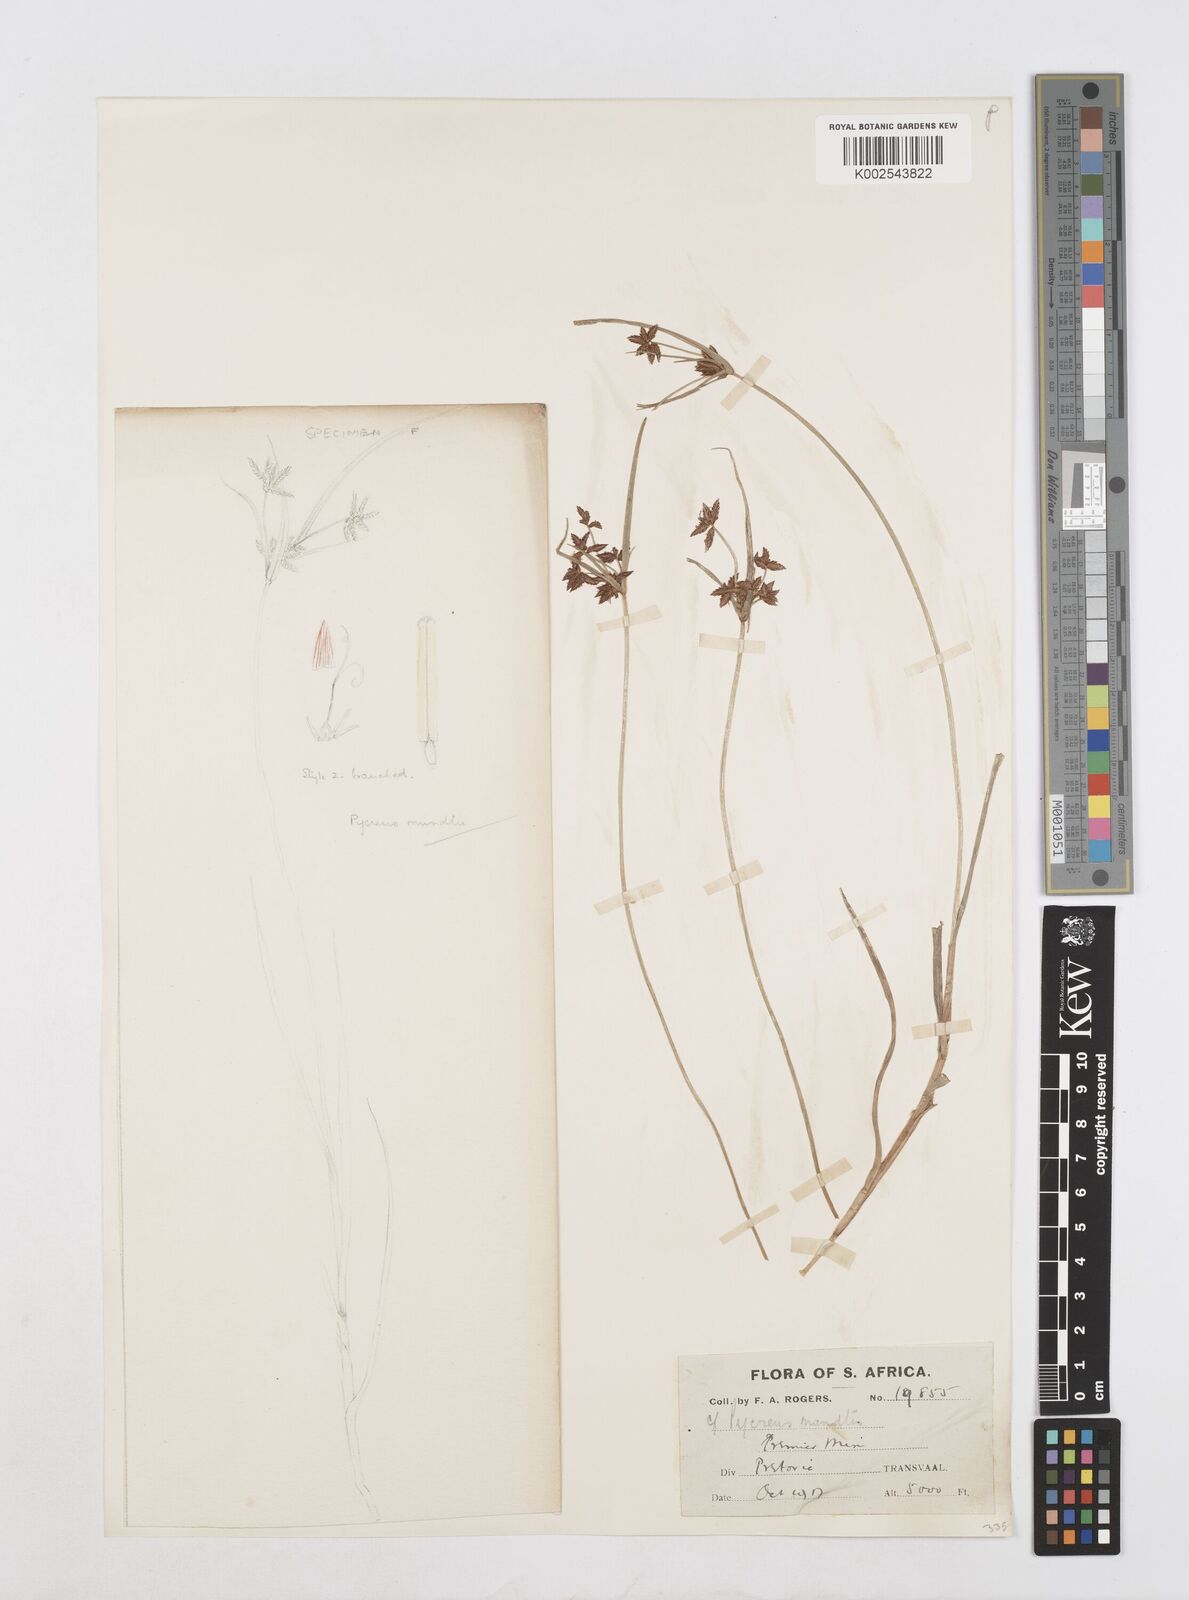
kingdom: Plantae
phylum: Tracheophyta
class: Liliopsida
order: Poales
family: Cyperaceae
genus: Cyperus
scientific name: Cyperus mundii
